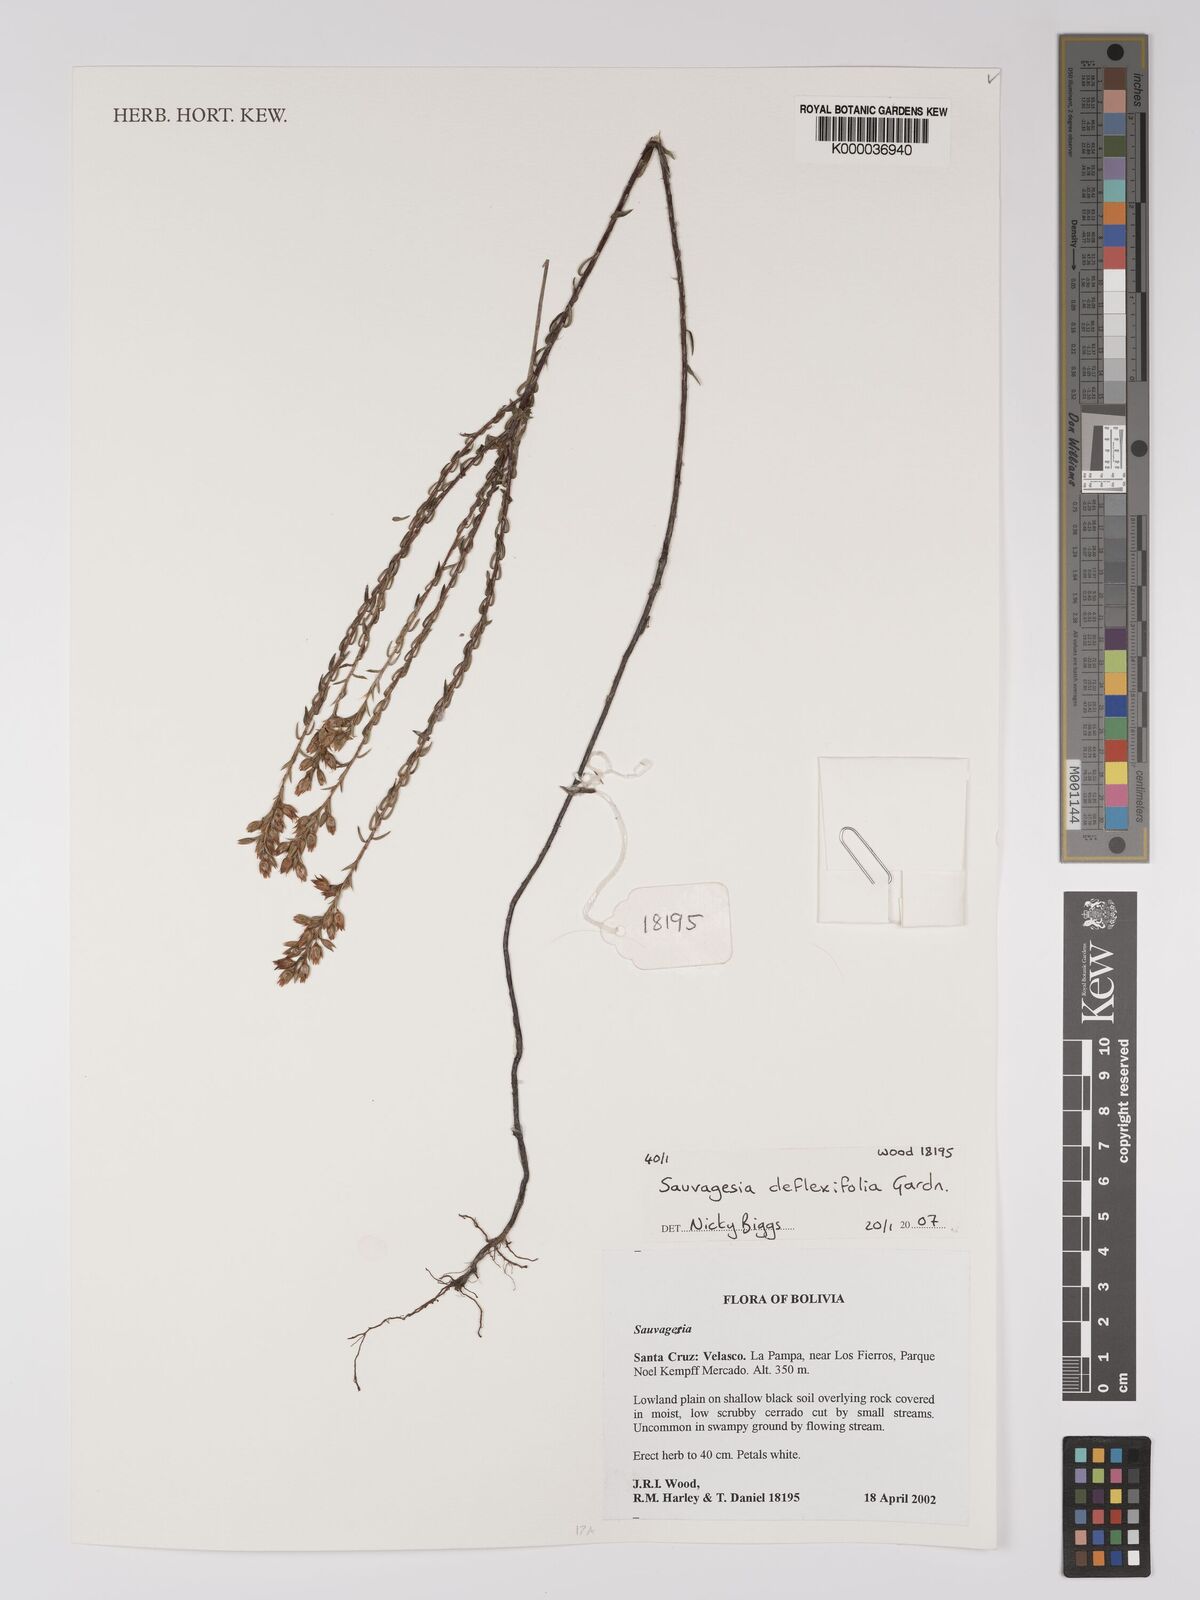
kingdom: Plantae
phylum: Tracheophyta
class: Magnoliopsida
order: Malpighiales
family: Ochnaceae
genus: Sauvagesia
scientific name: Sauvagesia deflexifolia
